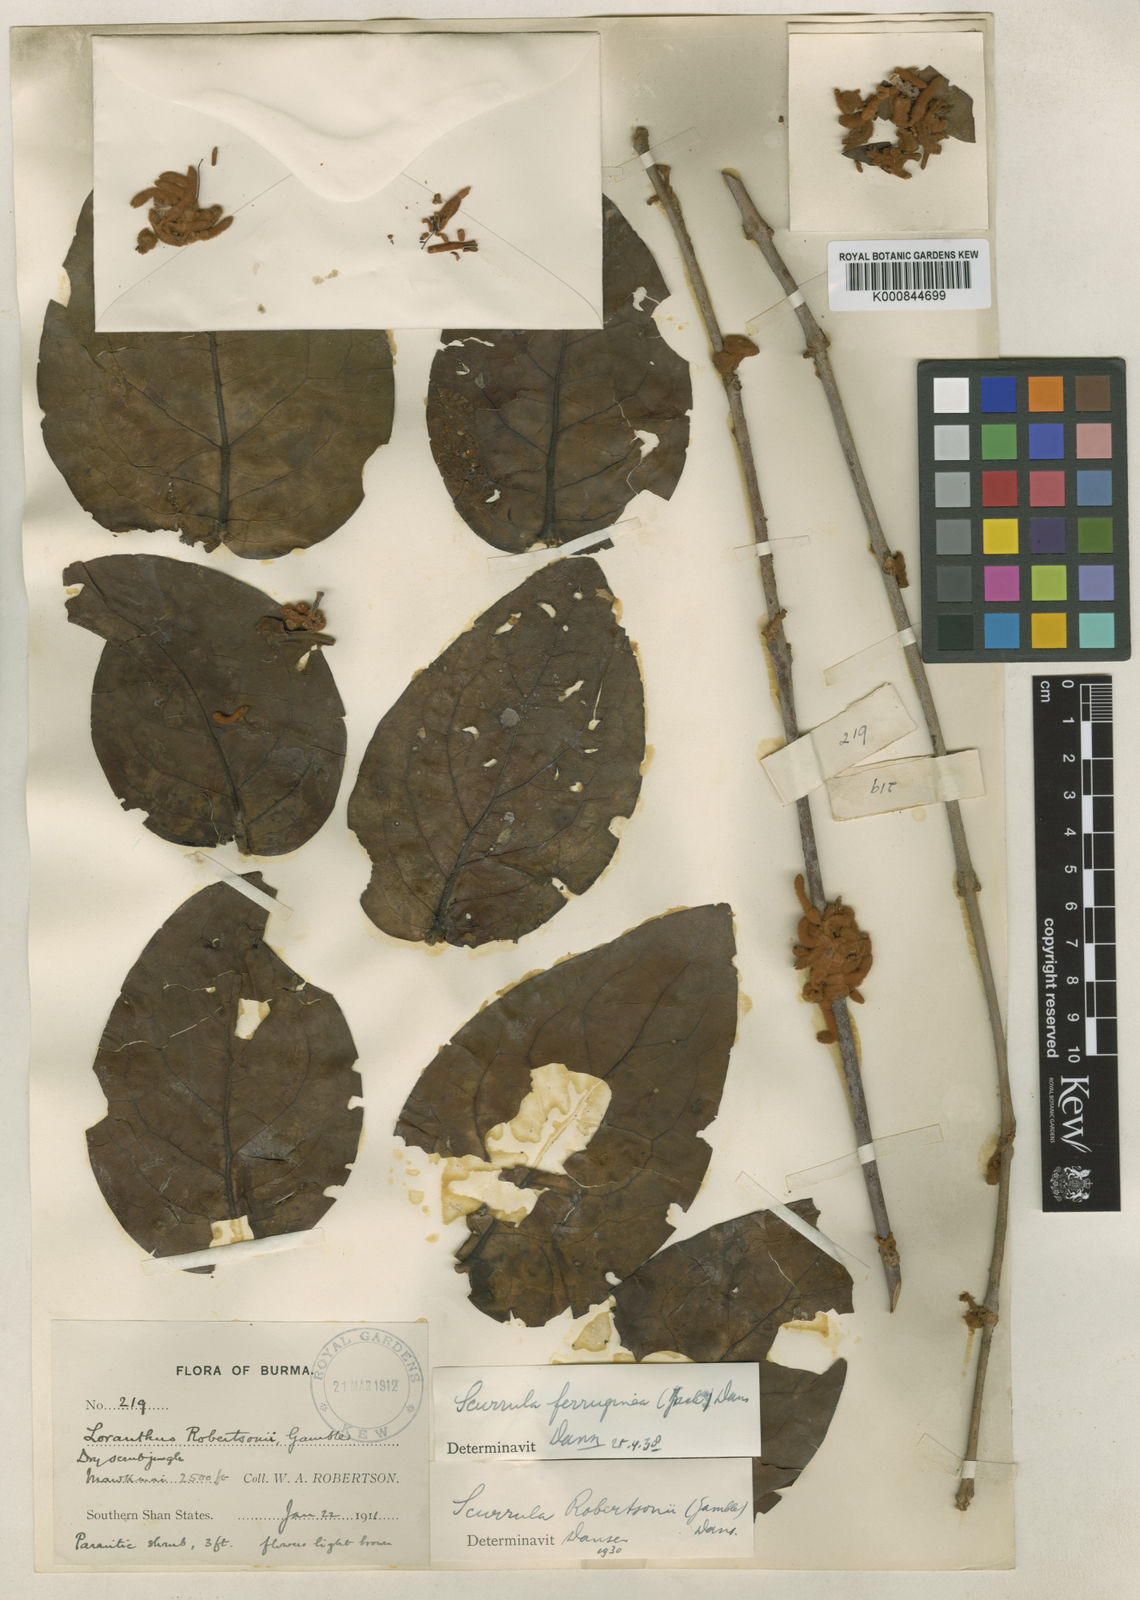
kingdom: Plantae
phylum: Tracheophyta
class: Magnoliopsida
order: Santalales
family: Loranthaceae
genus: Scurrula
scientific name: Scurrula robertsonii
